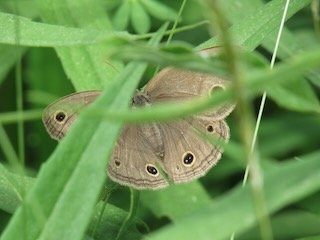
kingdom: Animalia
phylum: Arthropoda
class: Insecta
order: Lepidoptera
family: Nymphalidae
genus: Euptychia
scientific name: Euptychia cymela
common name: Little Wood Satyr
